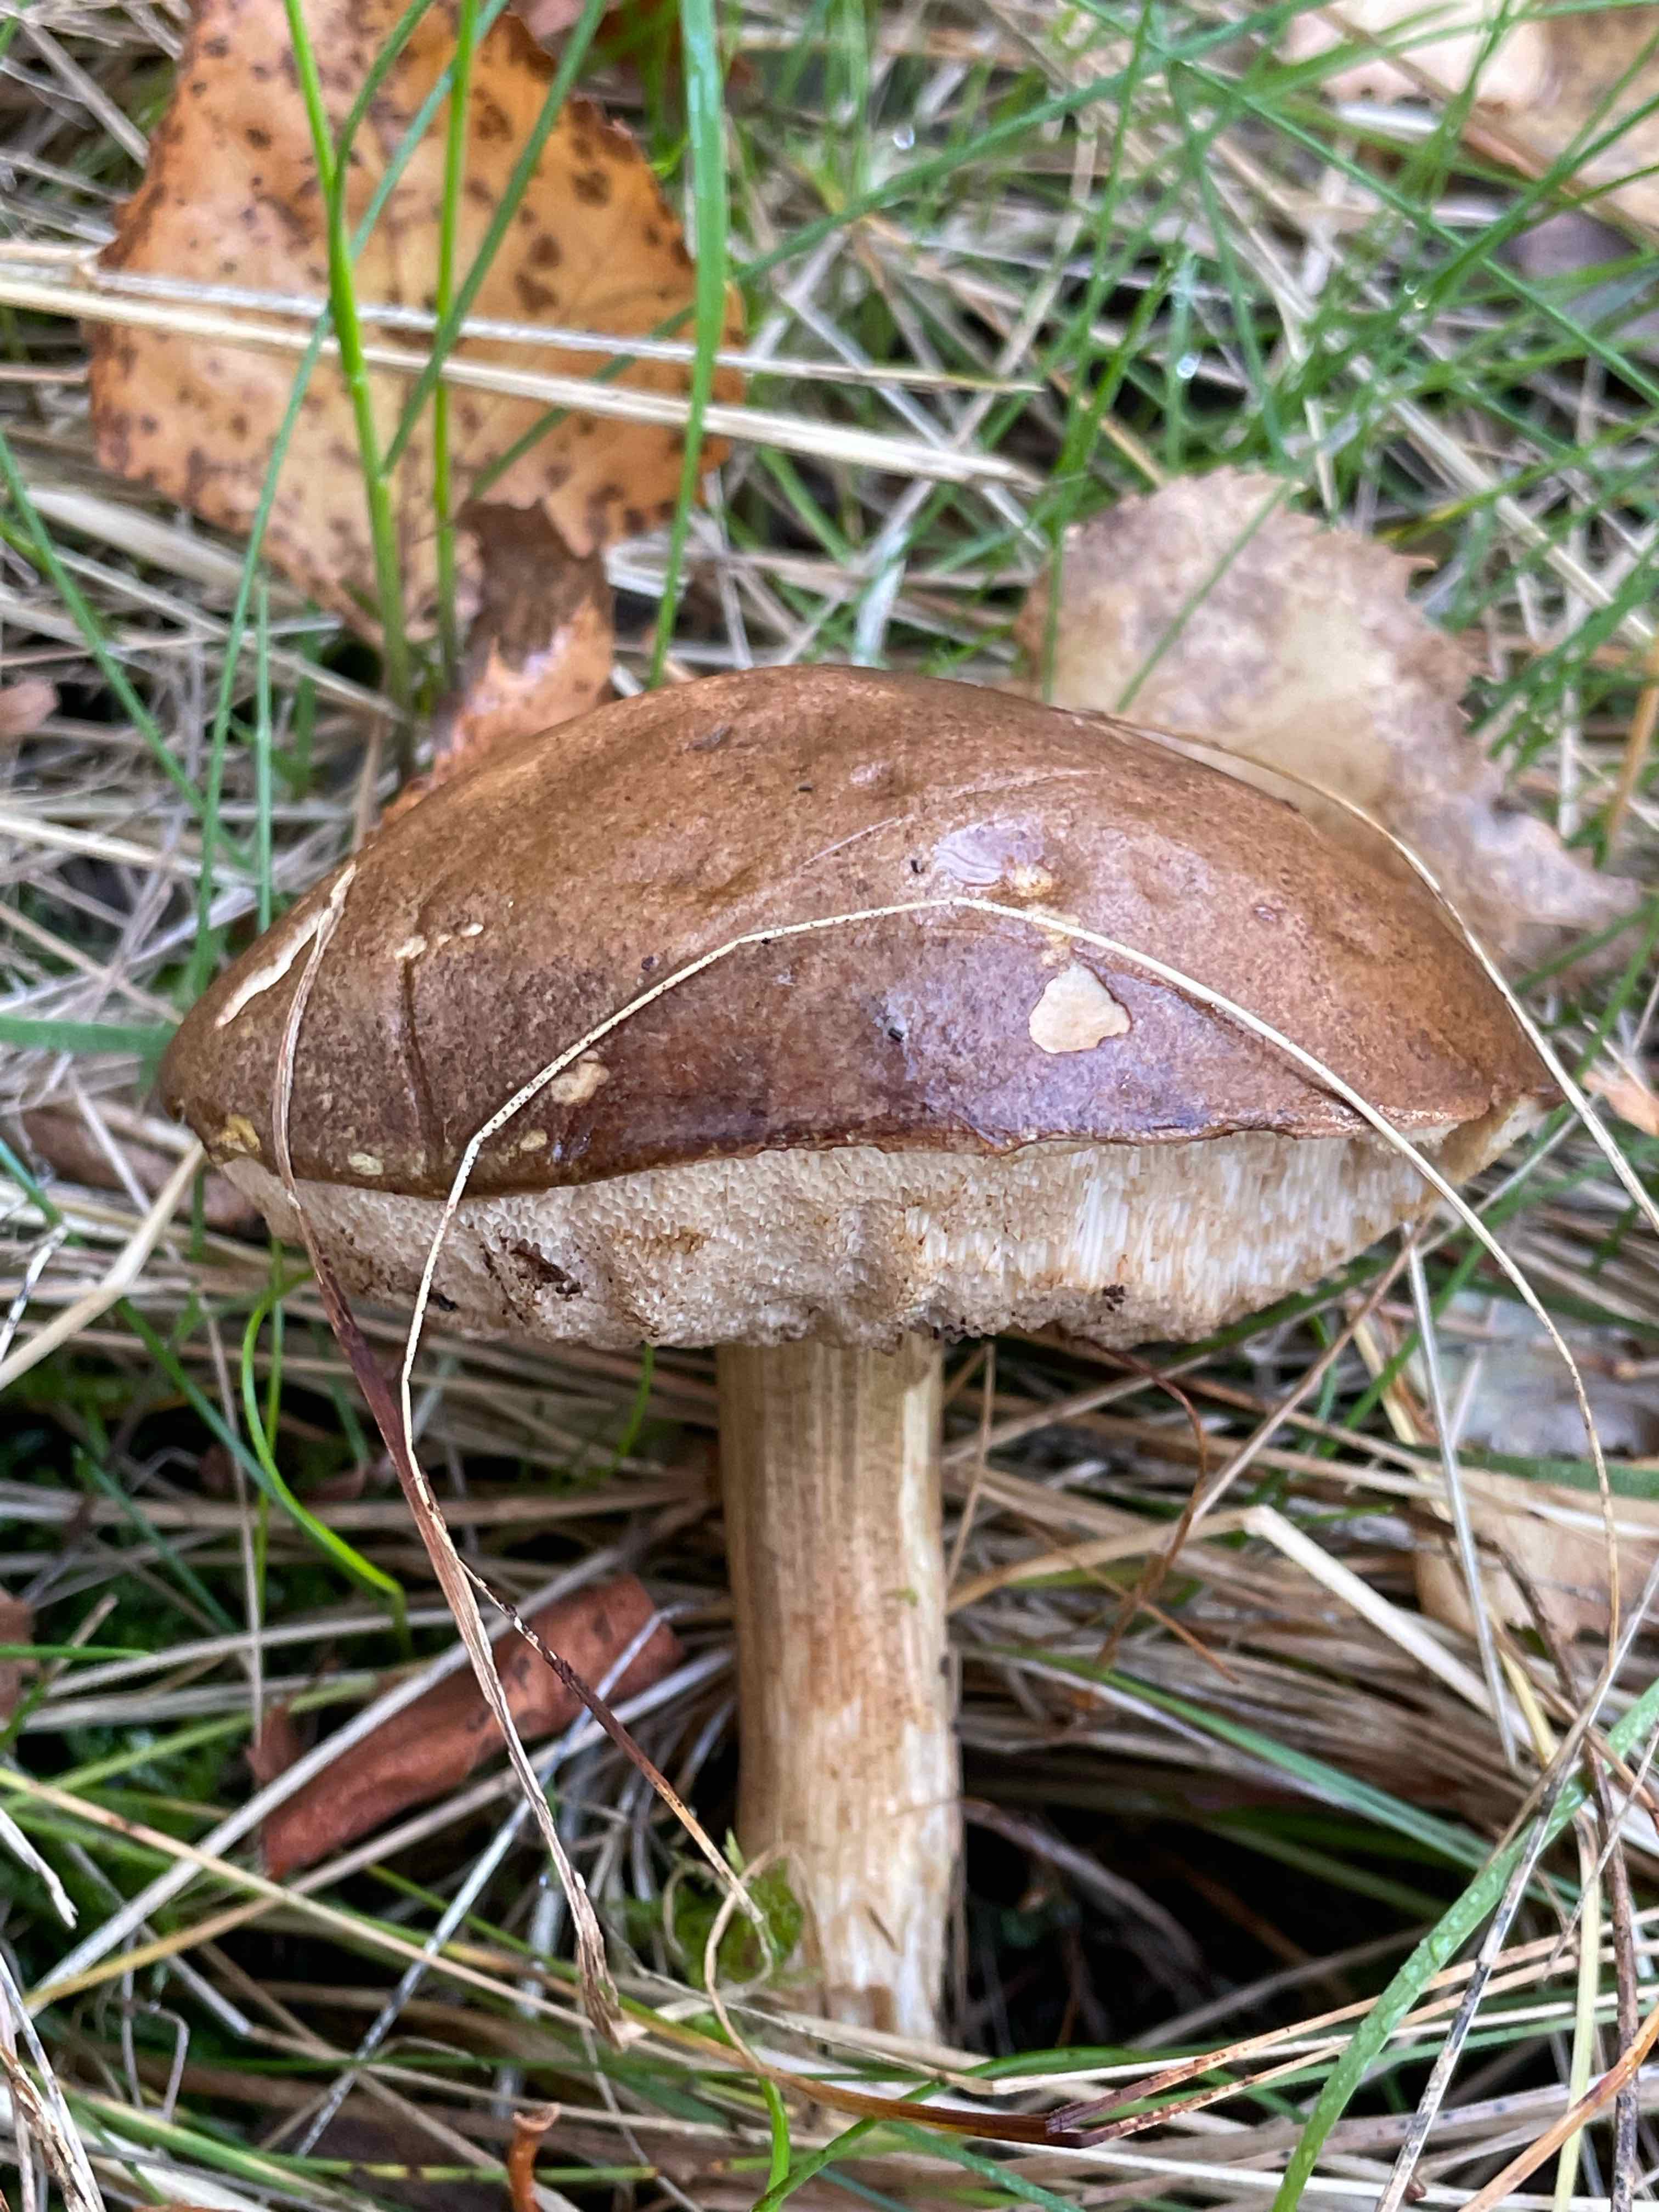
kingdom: Fungi
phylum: Basidiomycota
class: Agaricomycetes
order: Boletales
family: Boletaceae
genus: Leccinum
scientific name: Leccinum scabrum
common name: brun skælrørhat
